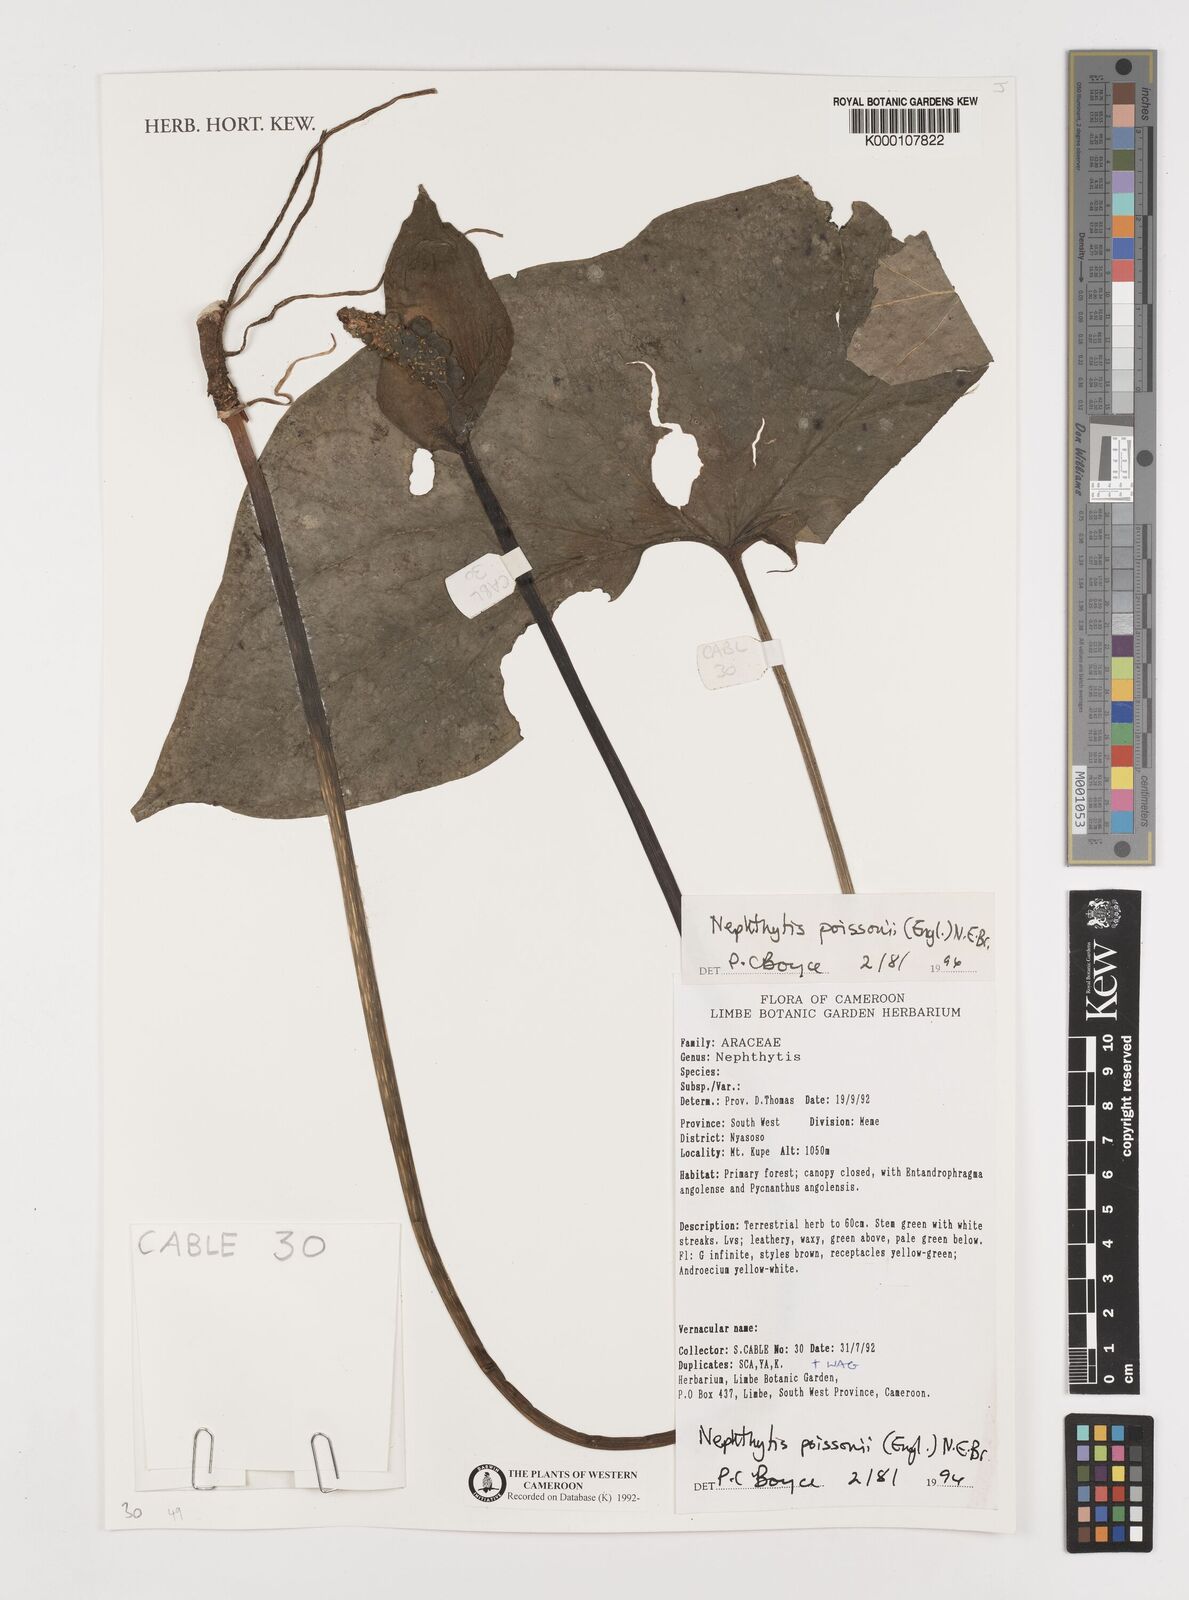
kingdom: Plantae
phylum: Tracheophyta
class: Liliopsida
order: Alismatales
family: Araceae
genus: Nephthytis
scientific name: Nephthytis poissonii
